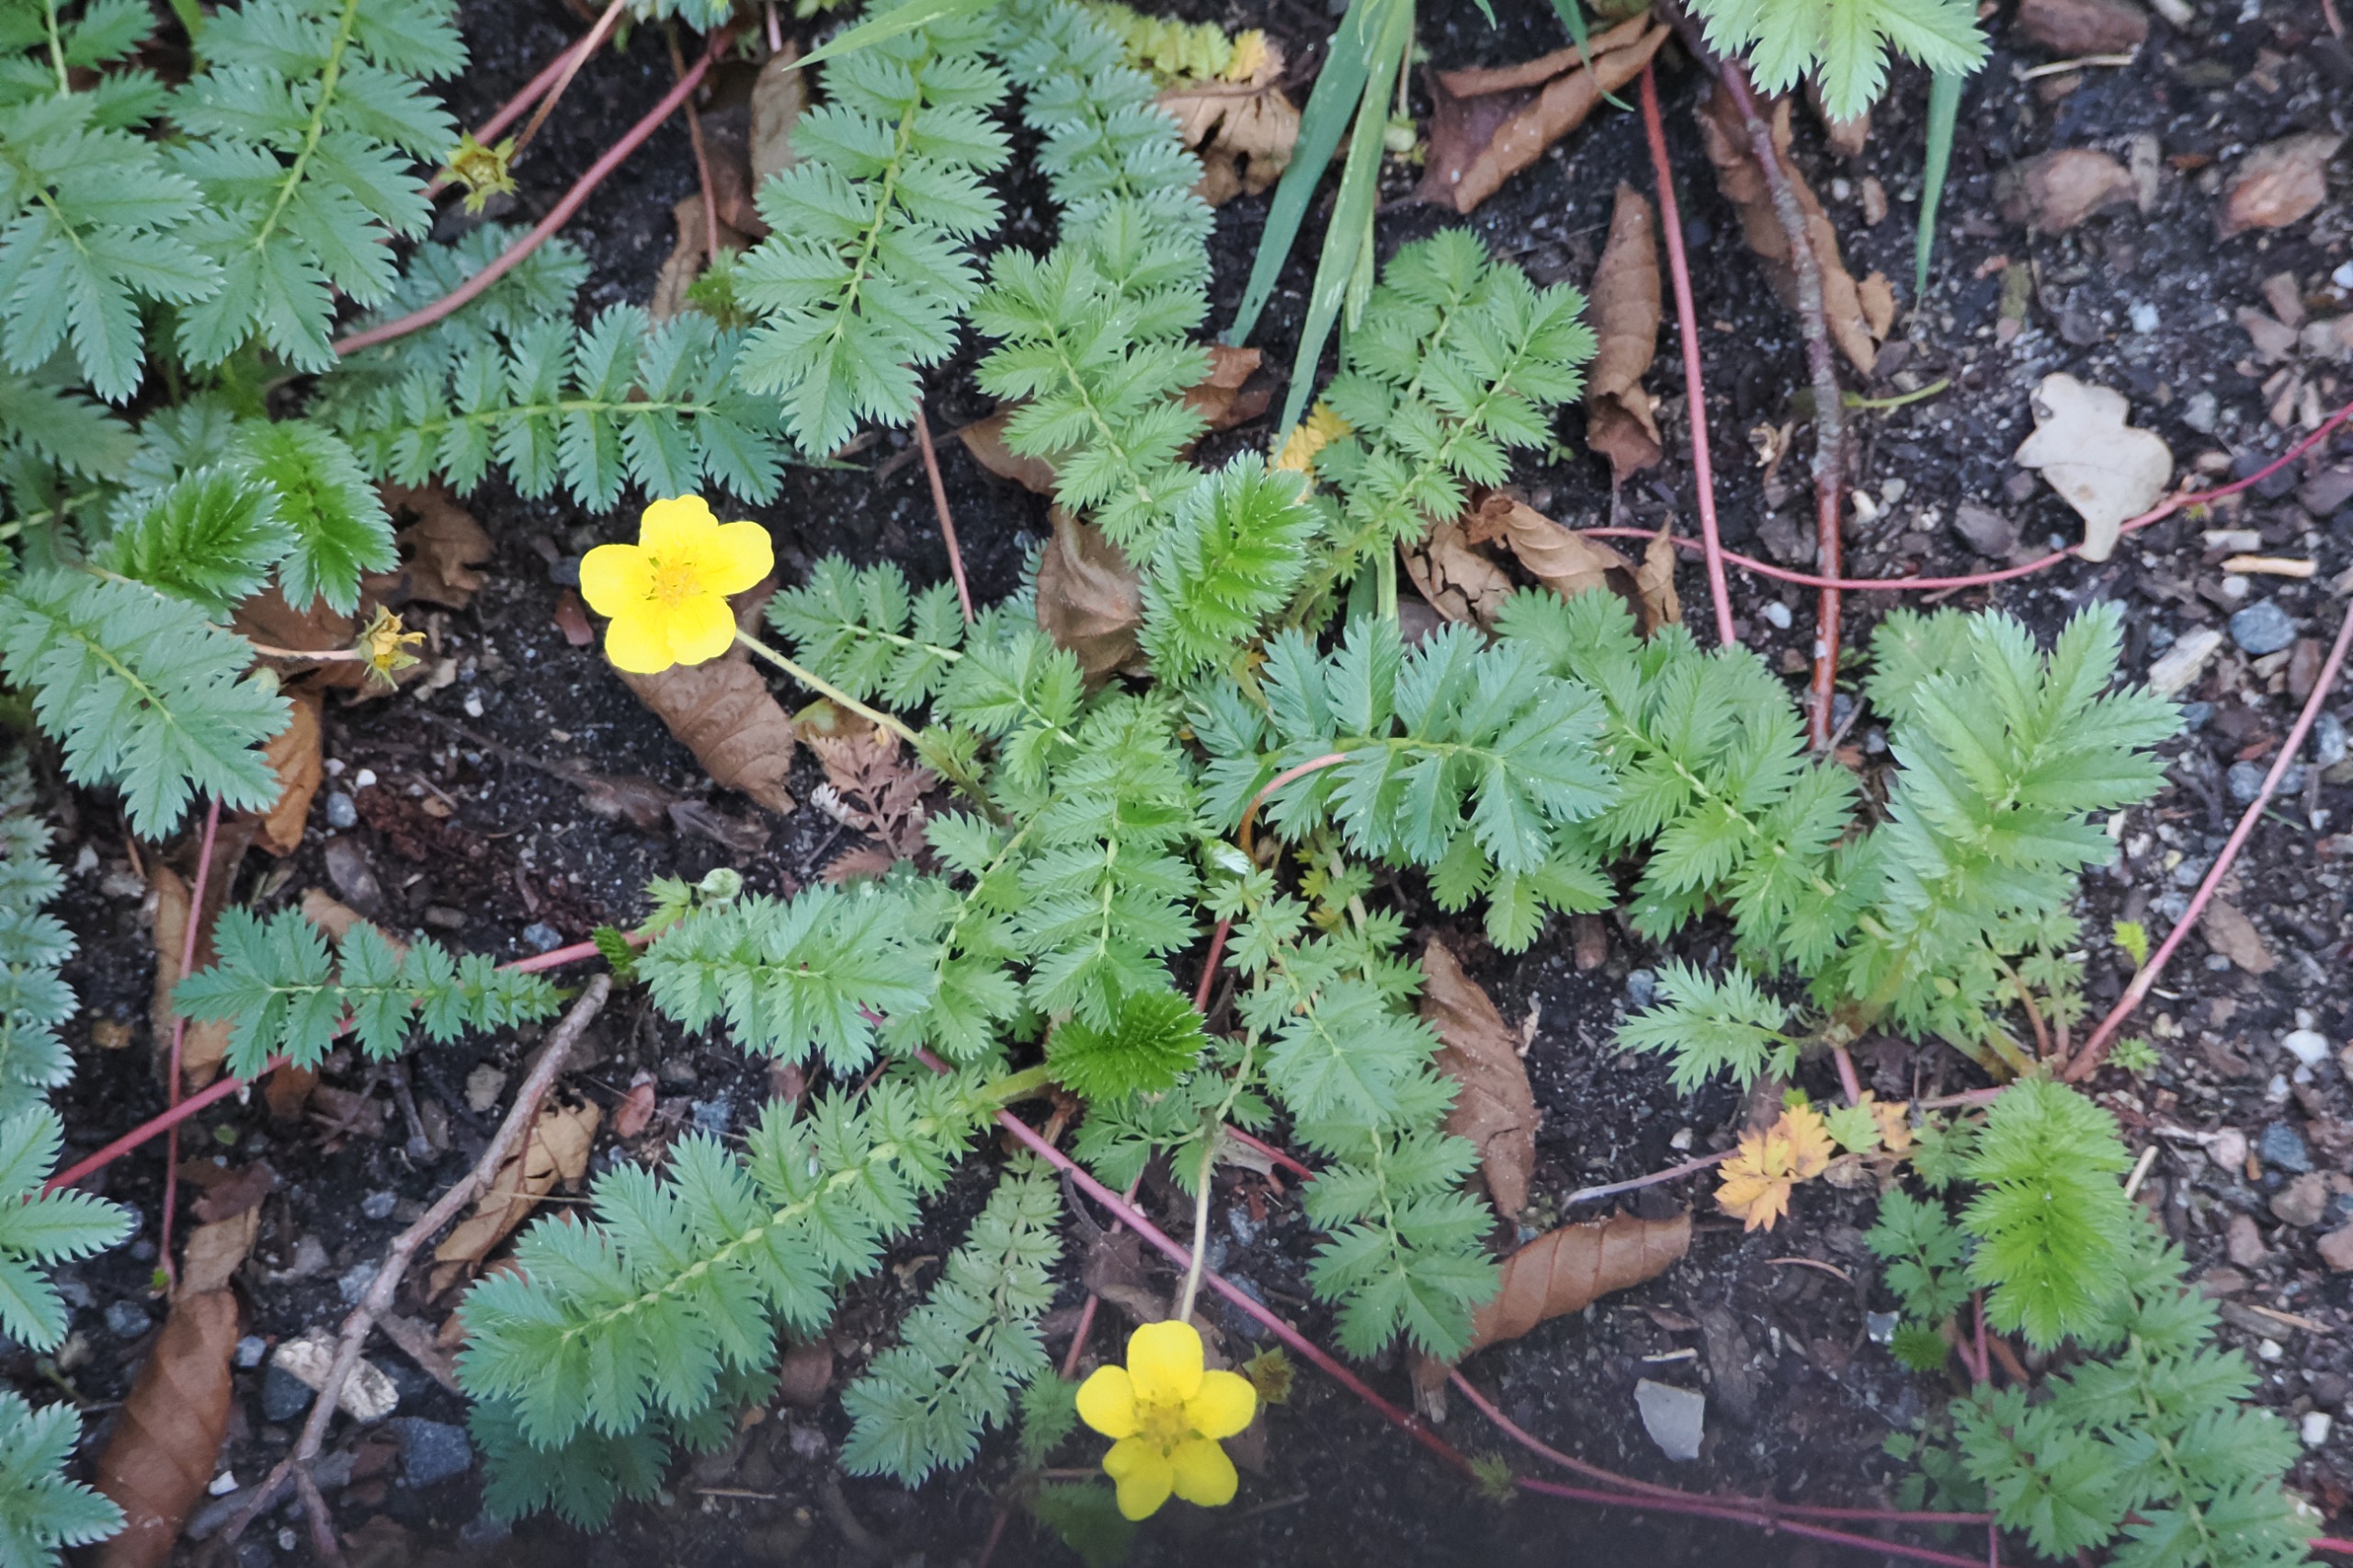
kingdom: Plantae
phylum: Tracheophyta
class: Magnoliopsida
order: Rosales
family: Rosaceae
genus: Argentina
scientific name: Argentina anserina
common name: Gåsepotentil
